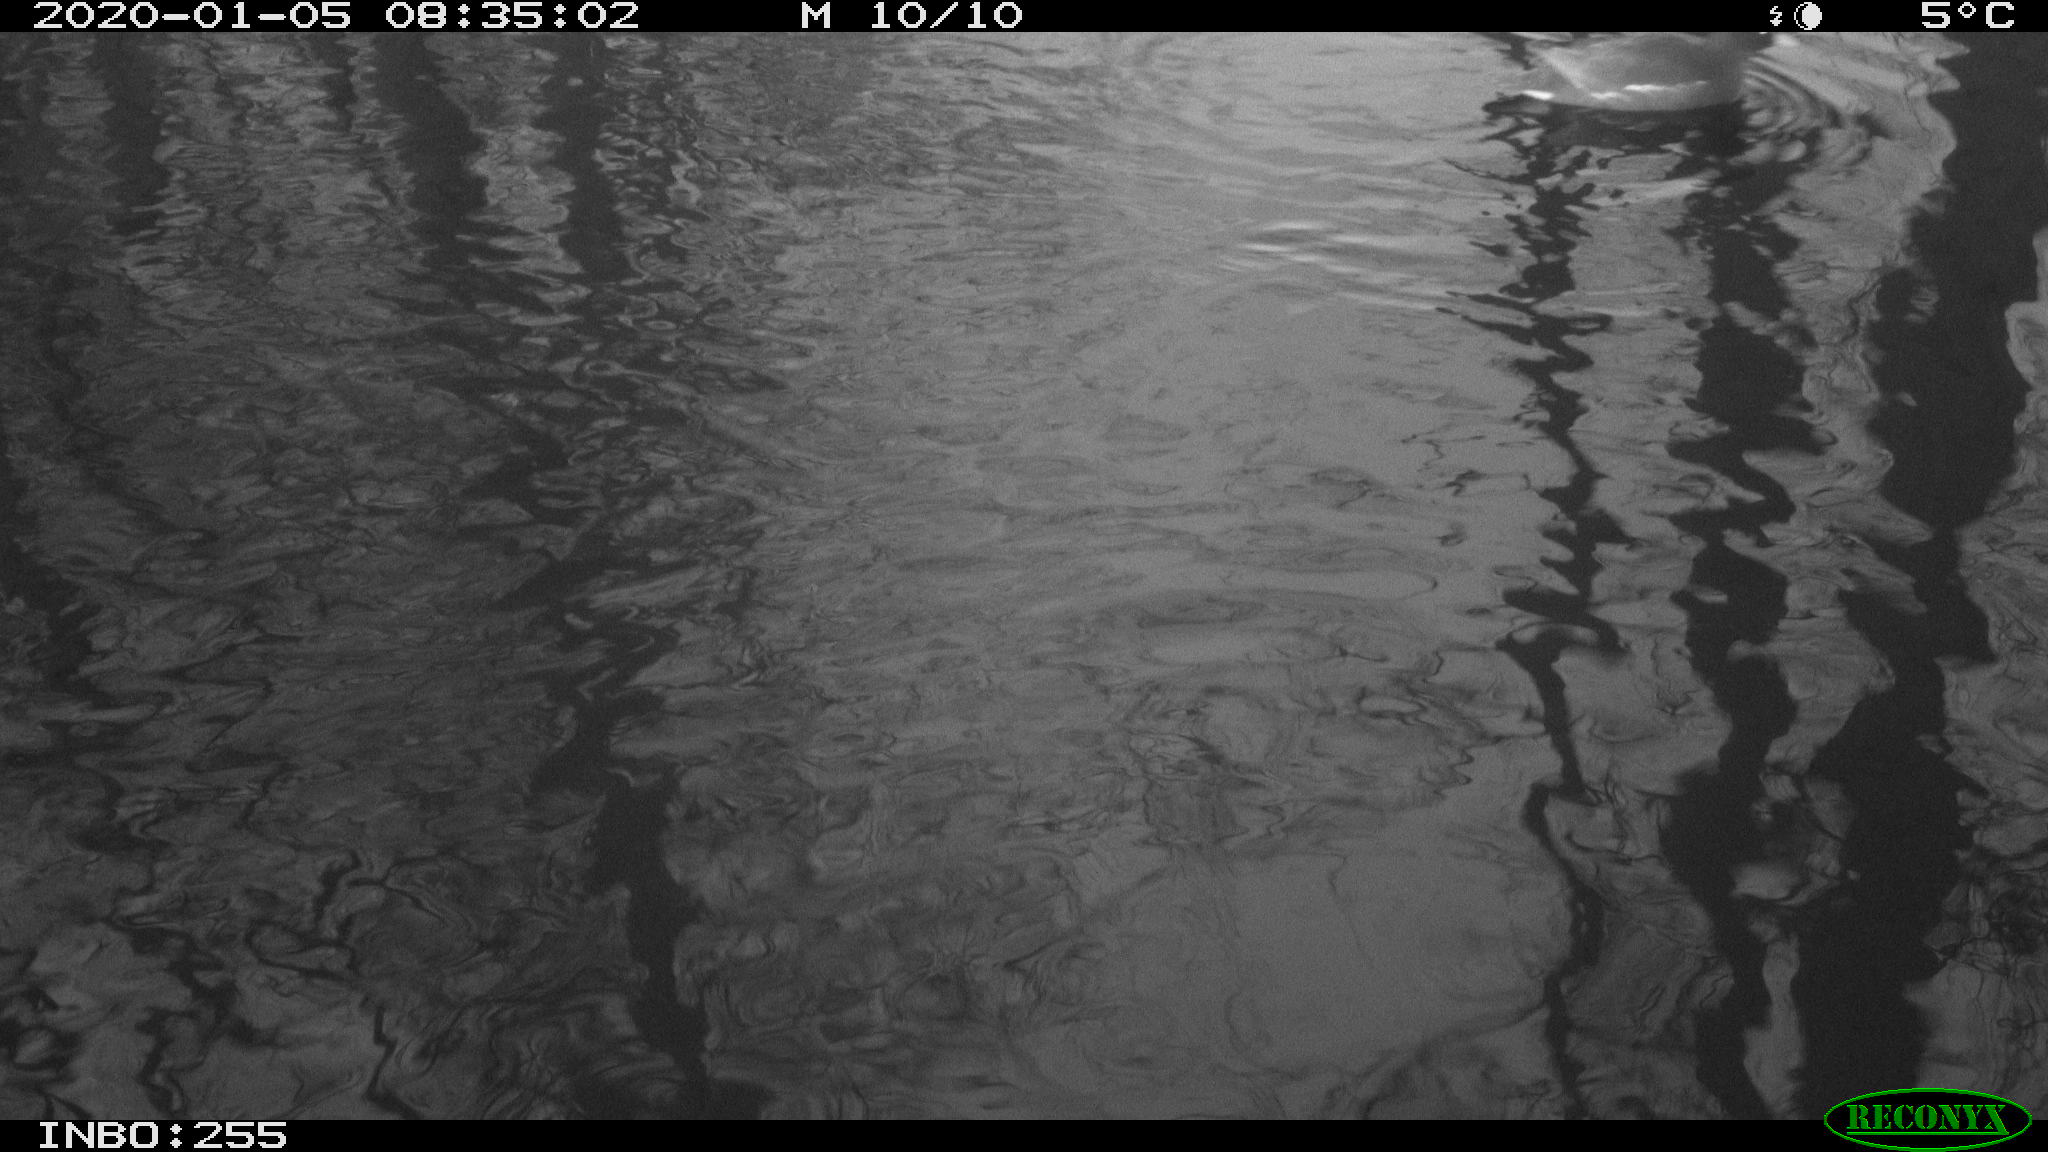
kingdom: Animalia
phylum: Chordata
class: Aves
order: Anseriformes
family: Anatidae
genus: Anas
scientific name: Anas platyrhynchos
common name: Mallard
